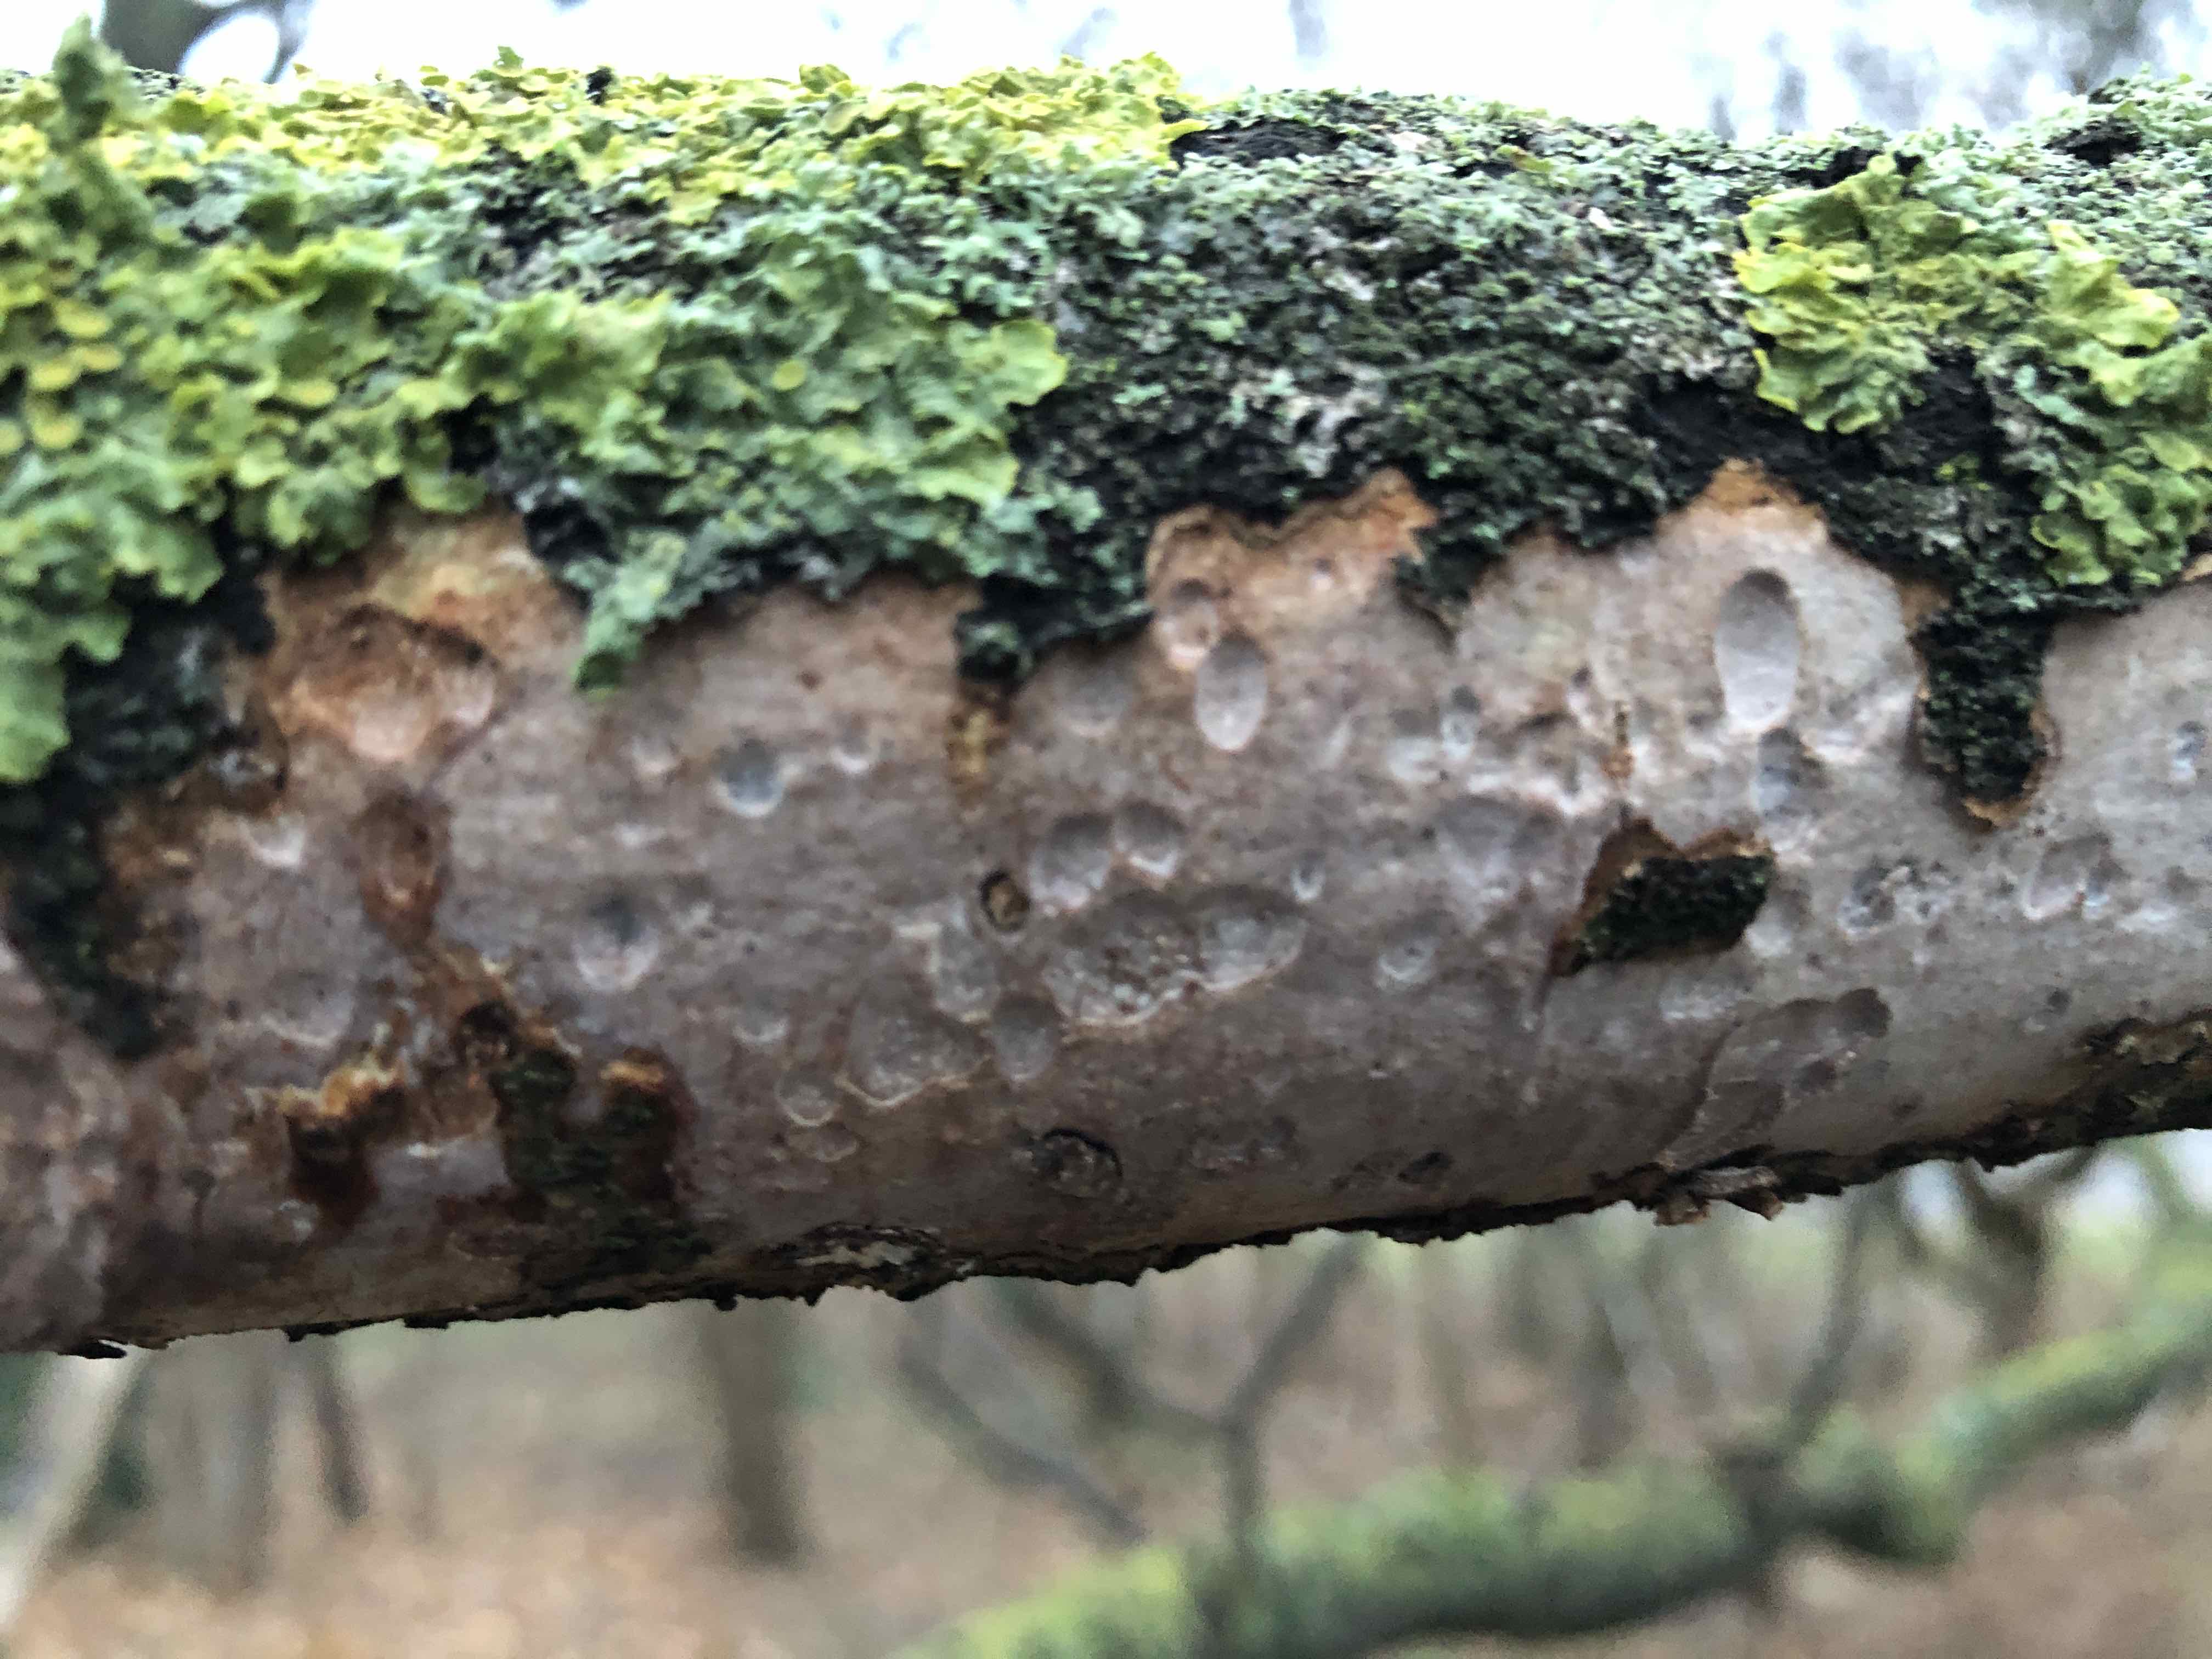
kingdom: Fungi
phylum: Basidiomycota
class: Agaricomycetes
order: Corticiales
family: Vuilleminiaceae
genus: Vuilleminia
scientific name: Vuilleminia comedens
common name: almindelig barksprænger
